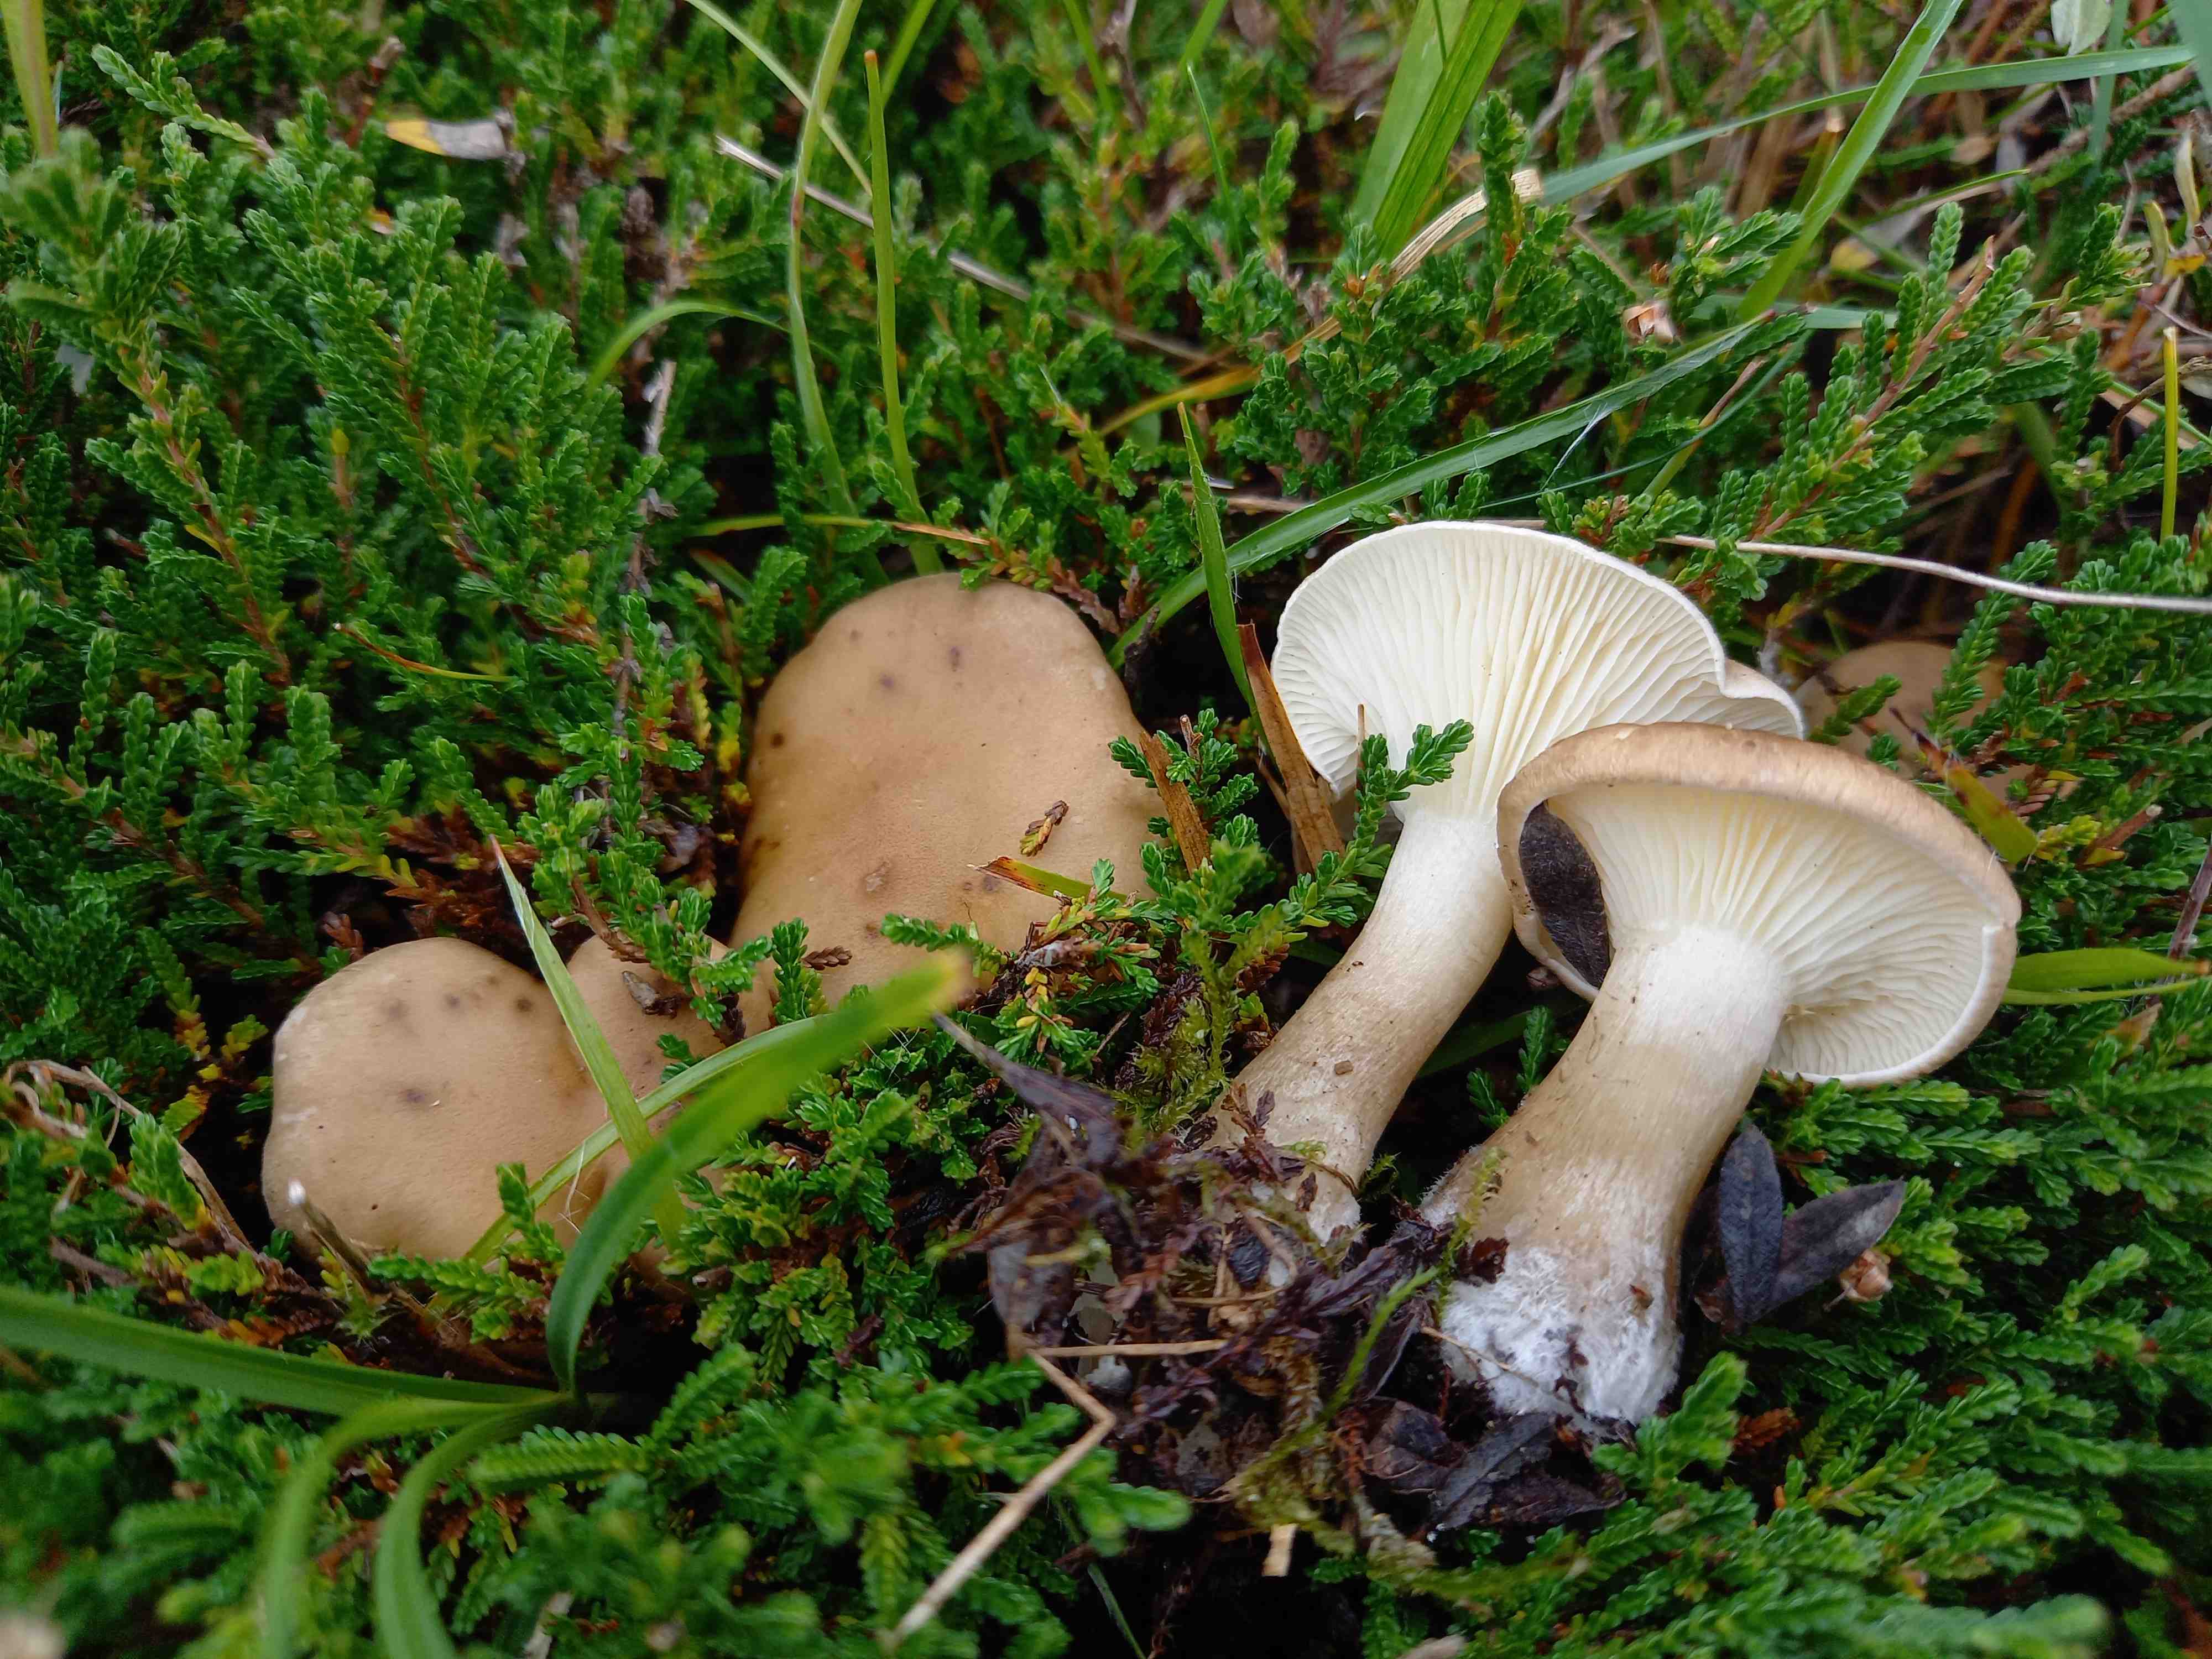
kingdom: Fungi
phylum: Basidiomycota
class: Agaricomycetes
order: Agaricales
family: Hygrophoraceae
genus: Ampulloclitocybe
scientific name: Ampulloclitocybe clavipes
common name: køllefod
